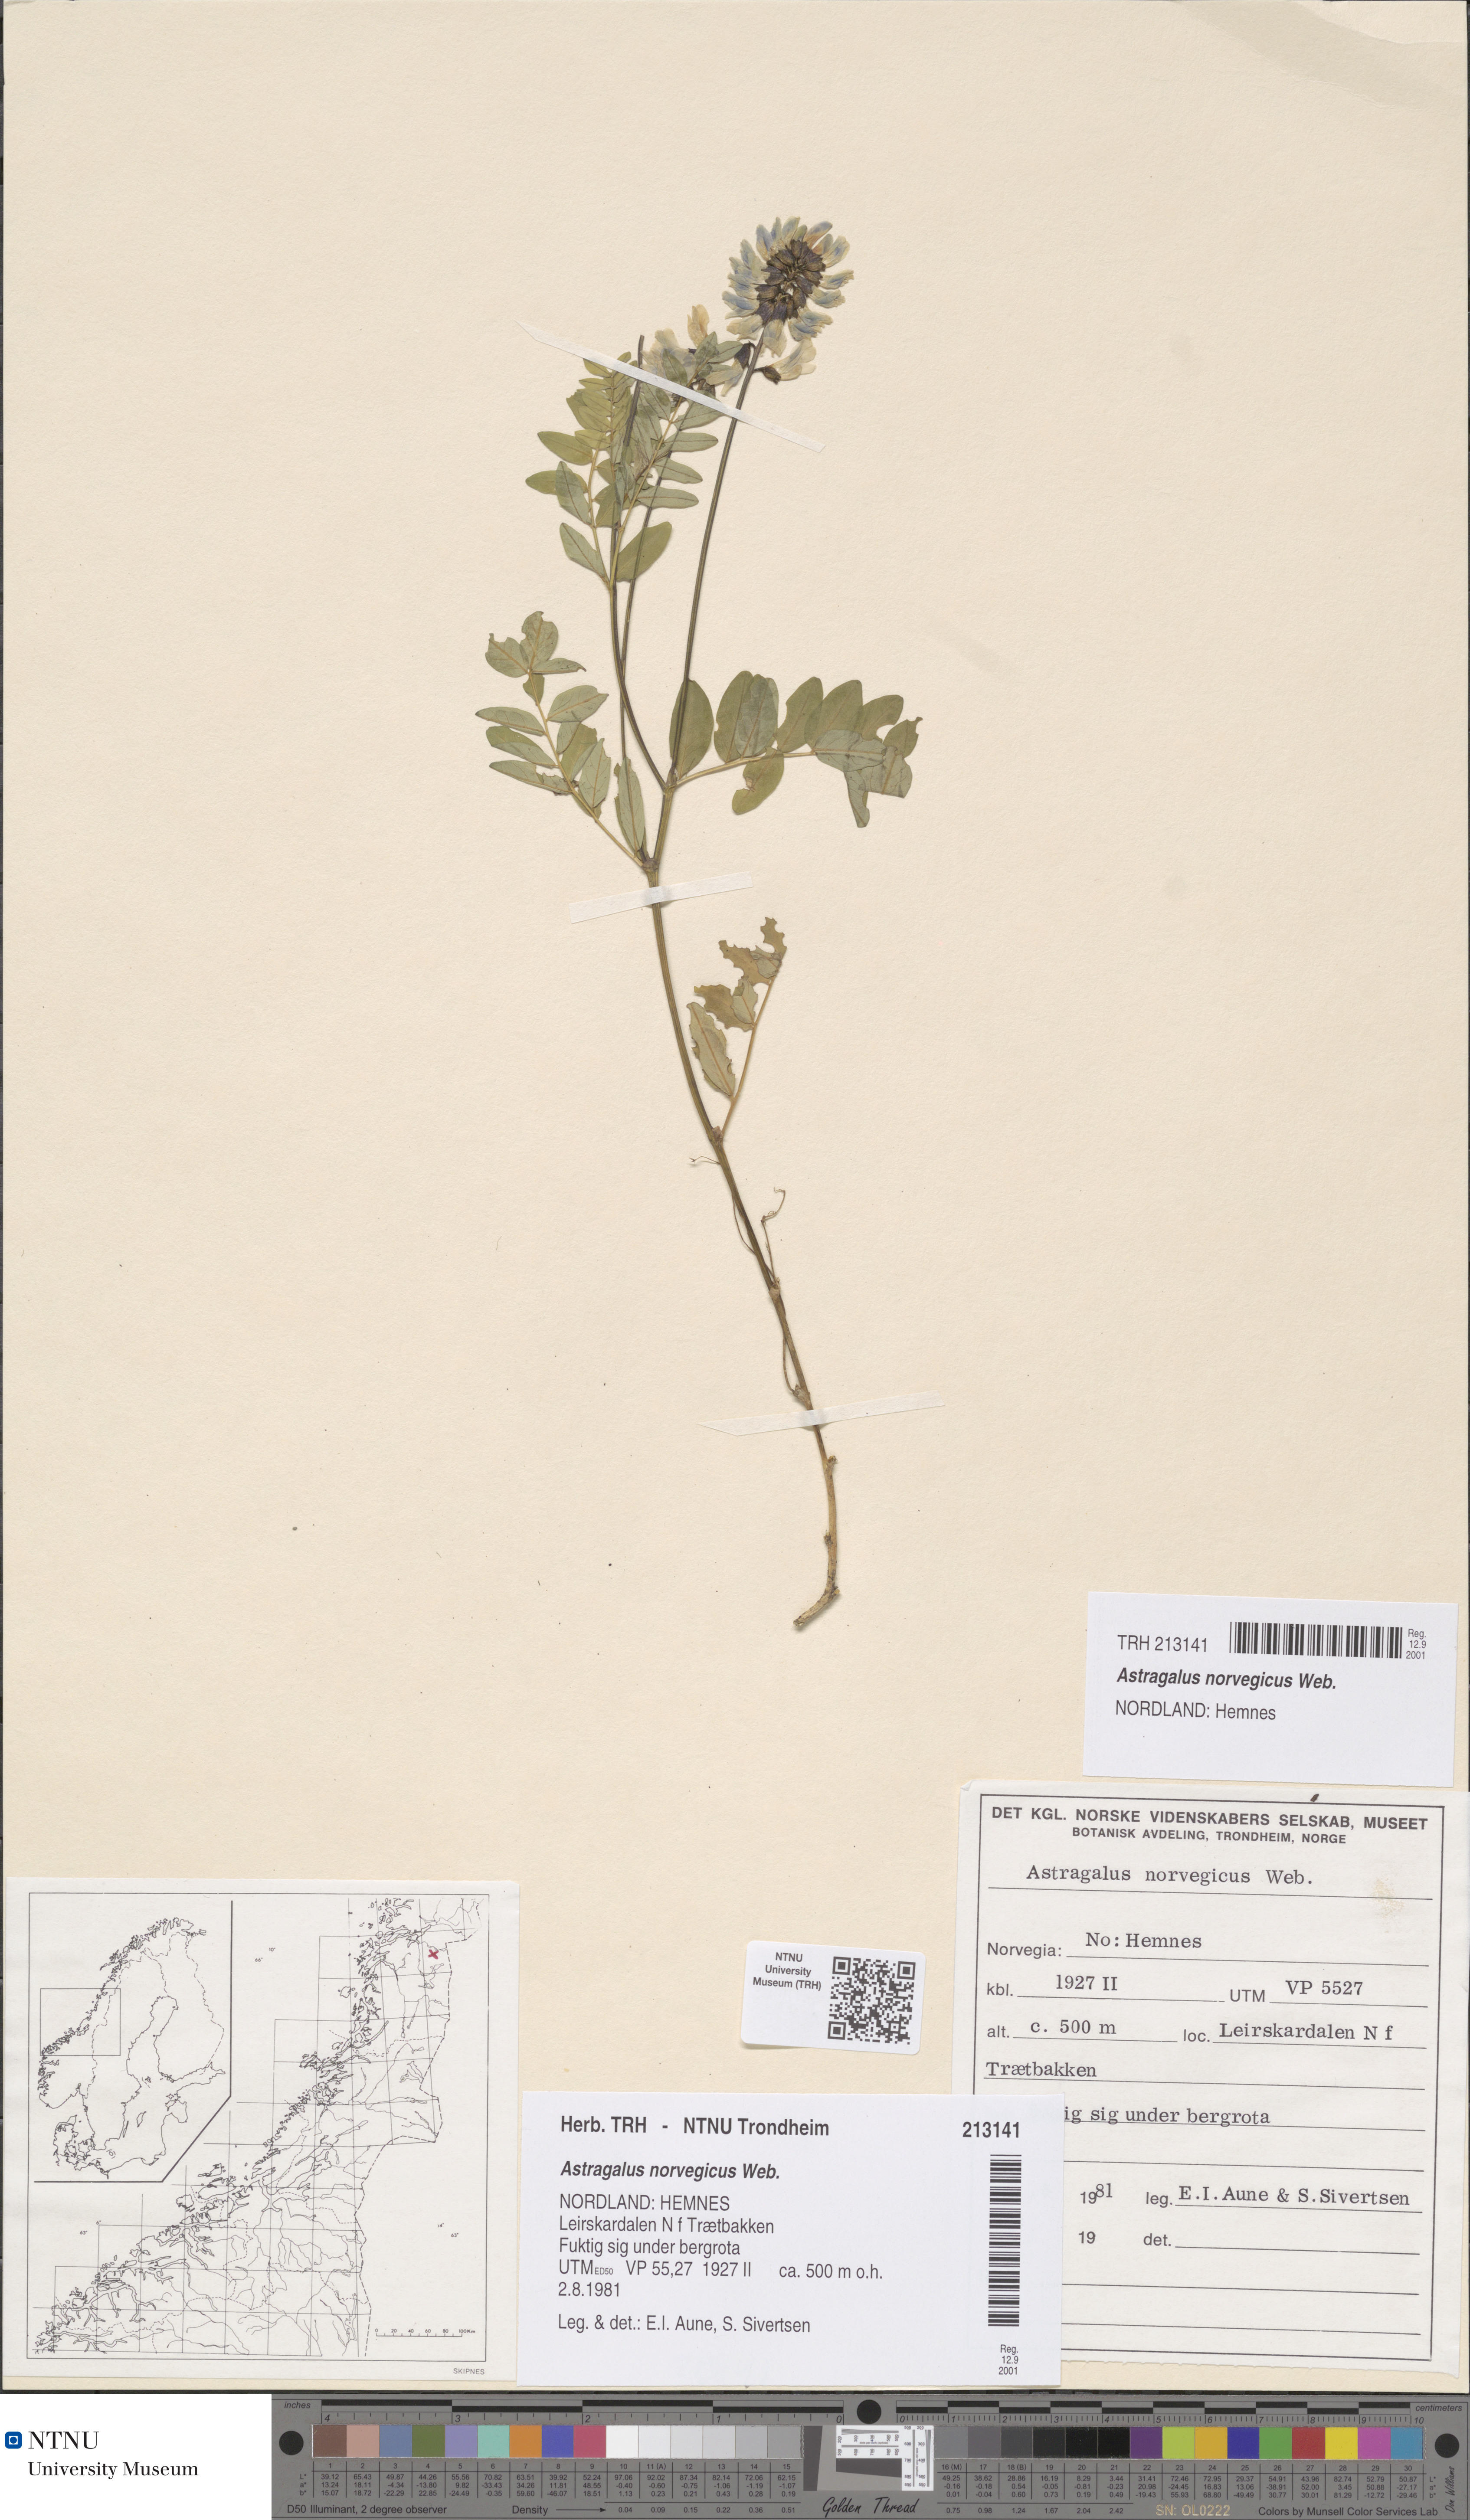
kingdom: Plantae
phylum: Tracheophyta
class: Magnoliopsida
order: Fabales
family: Fabaceae
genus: Astragalus
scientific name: Astragalus norvegicus
